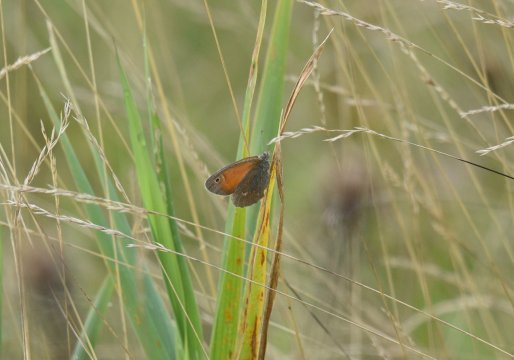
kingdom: Animalia
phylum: Arthropoda
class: Insecta
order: Lepidoptera
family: Nymphalidae
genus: Coenonympha
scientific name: Coenonympha tullia
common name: Large Heath
